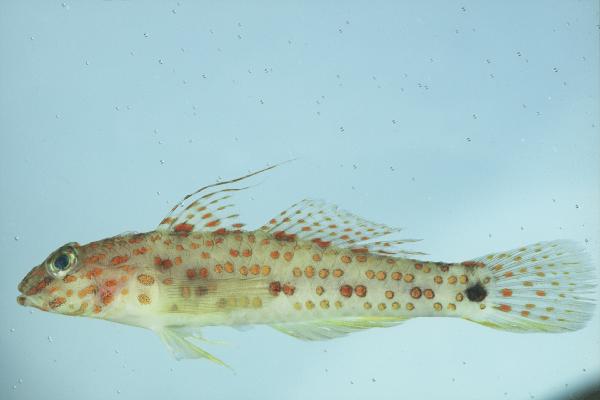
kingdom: Animalia
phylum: Chordata
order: Perciformes
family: Gobiidae
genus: Fusigobius
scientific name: Fusigobius inframaculatus
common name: Blotched goby
